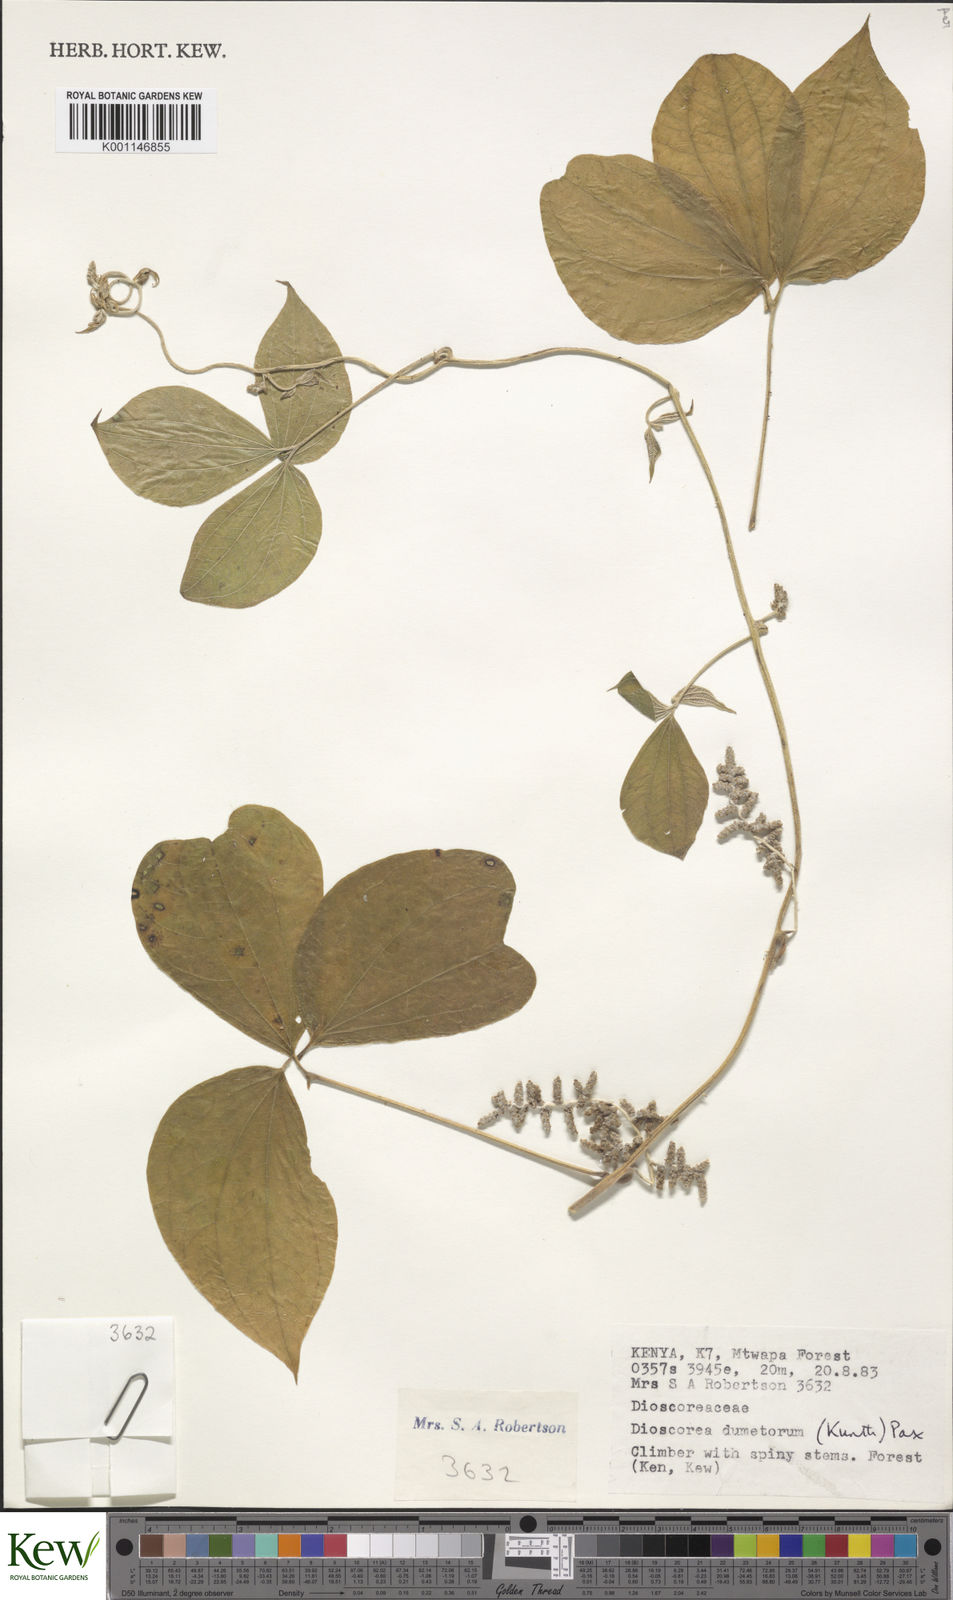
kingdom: Plantae
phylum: Tracheophyta
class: Liliopsida
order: Dioscoreales
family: Dioscoreaceae
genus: Dioscorea
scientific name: Dioscorea dumetorum
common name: African bitter yam
